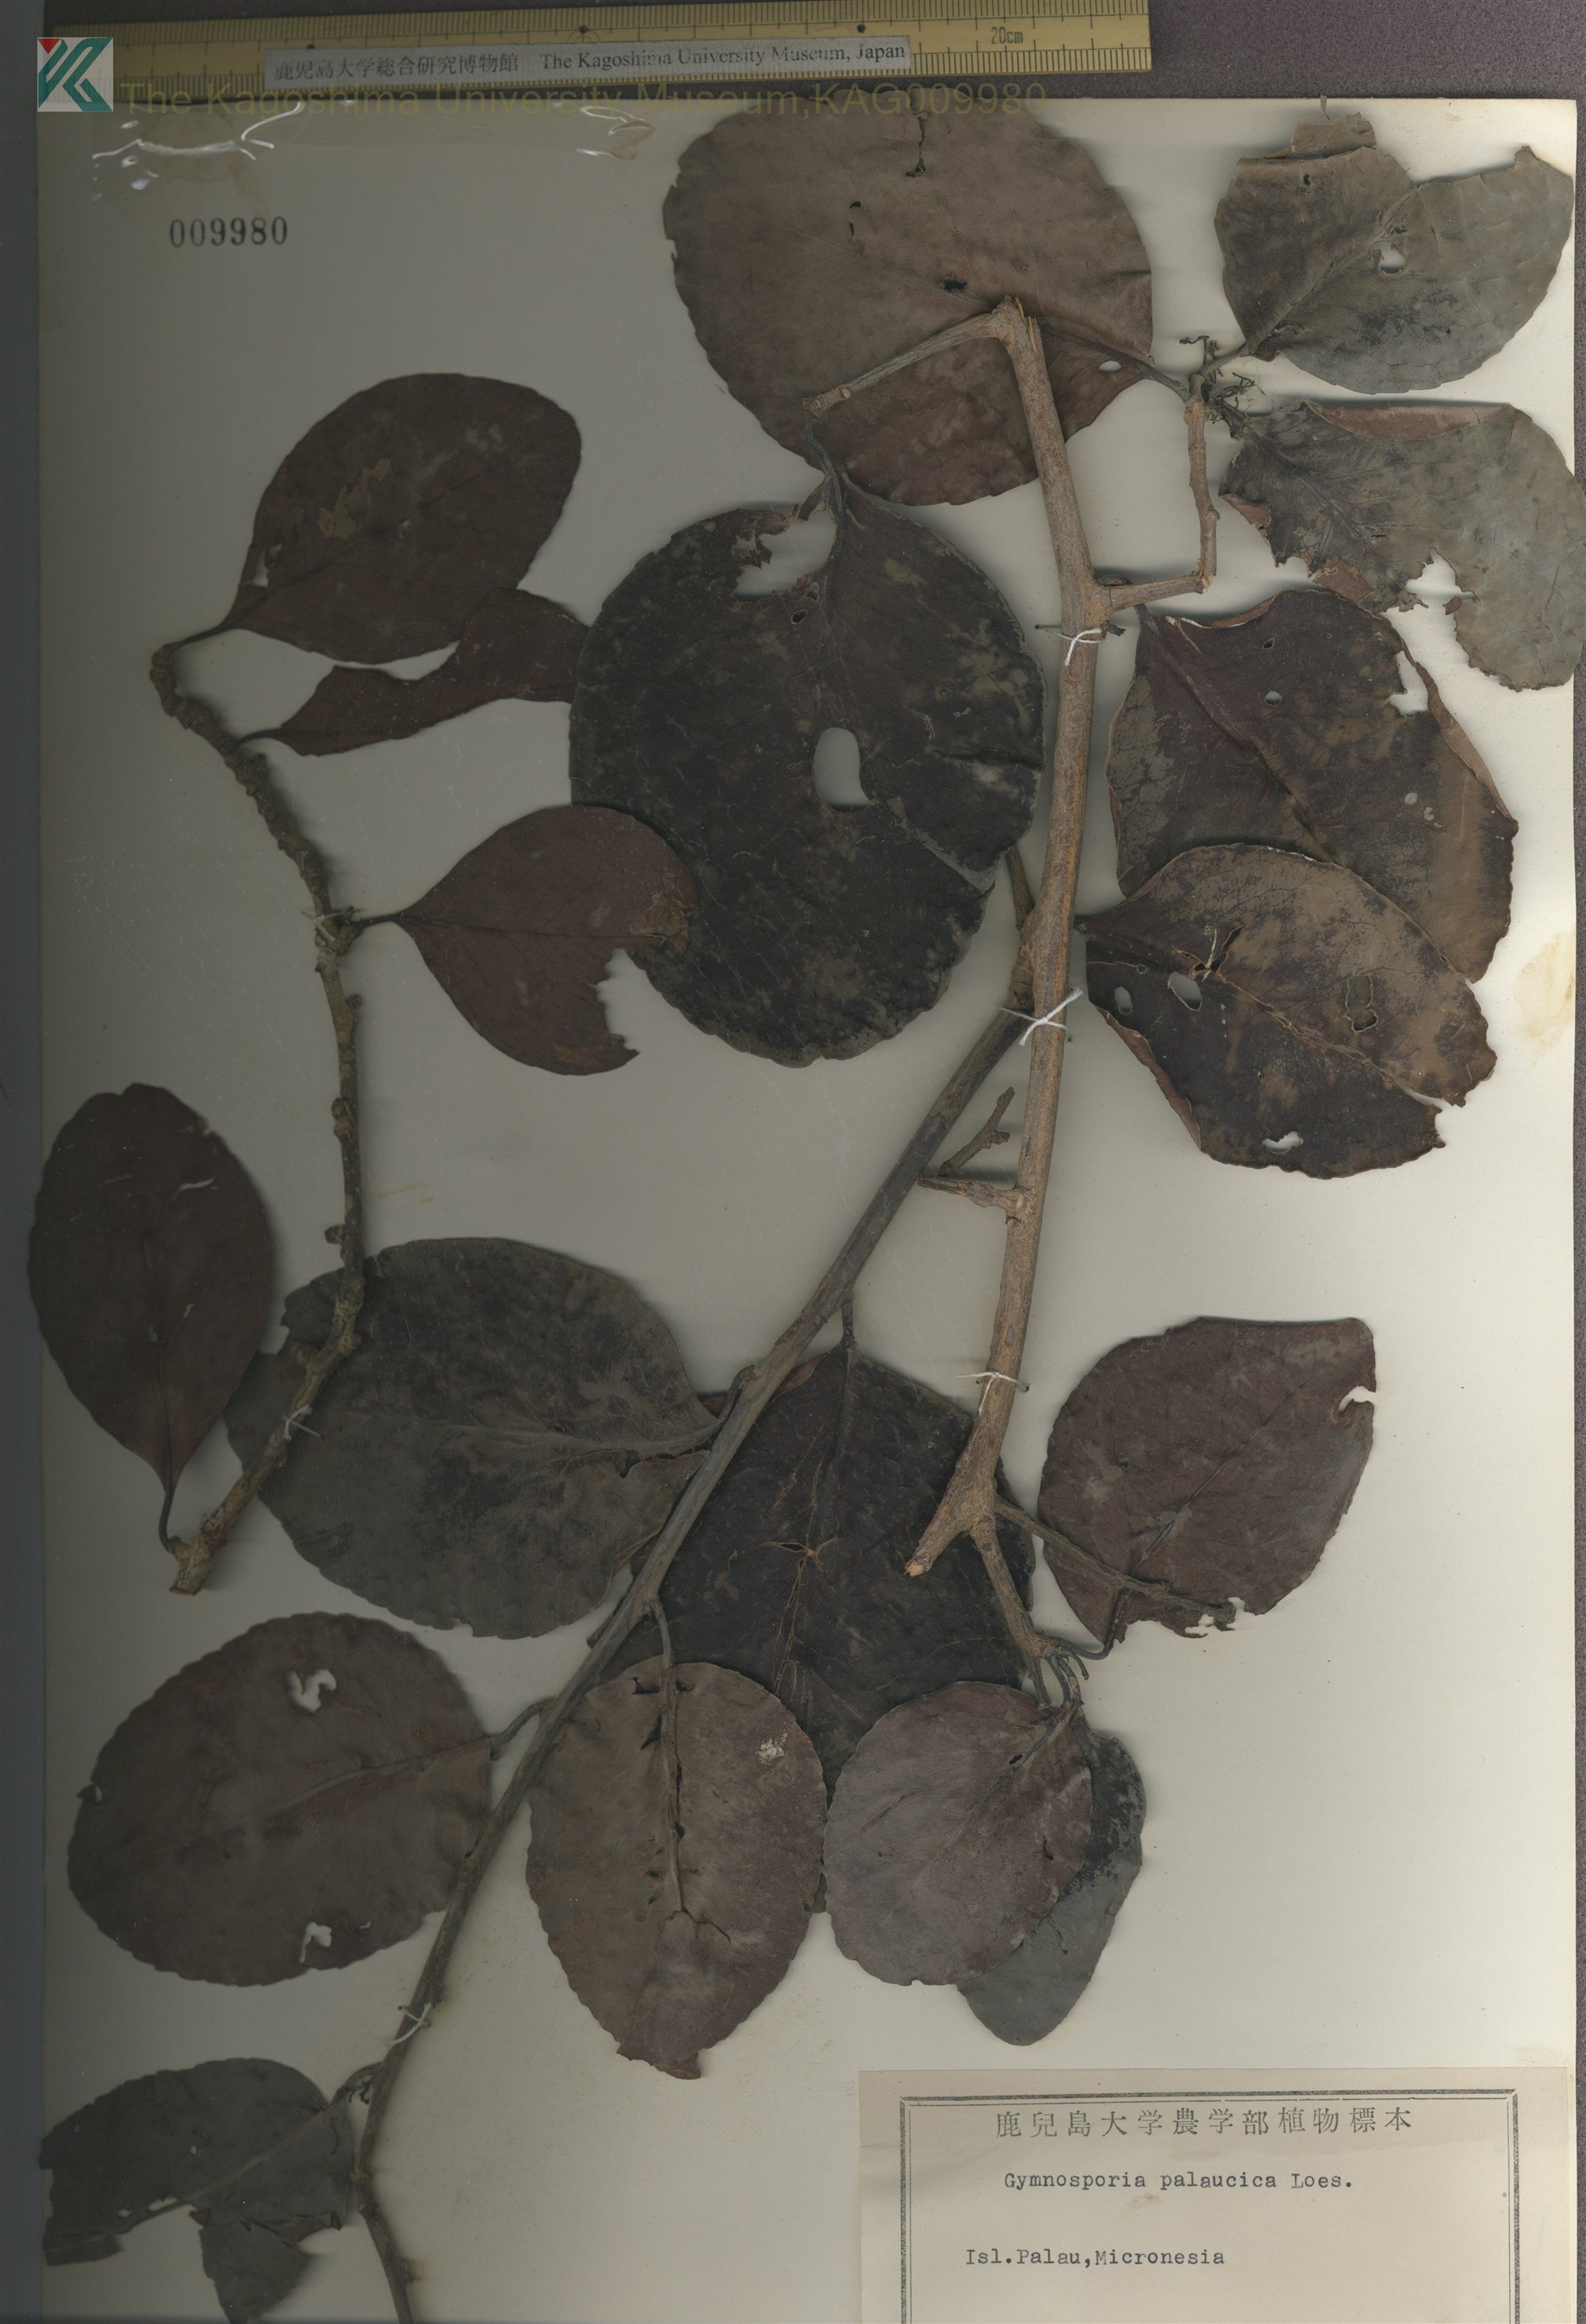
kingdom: Plantae
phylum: Tracheophyta
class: Magnoliopsida
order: Celastrales
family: Celastraceae
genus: Gymnosporia
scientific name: Gymnosporia thompsonii
